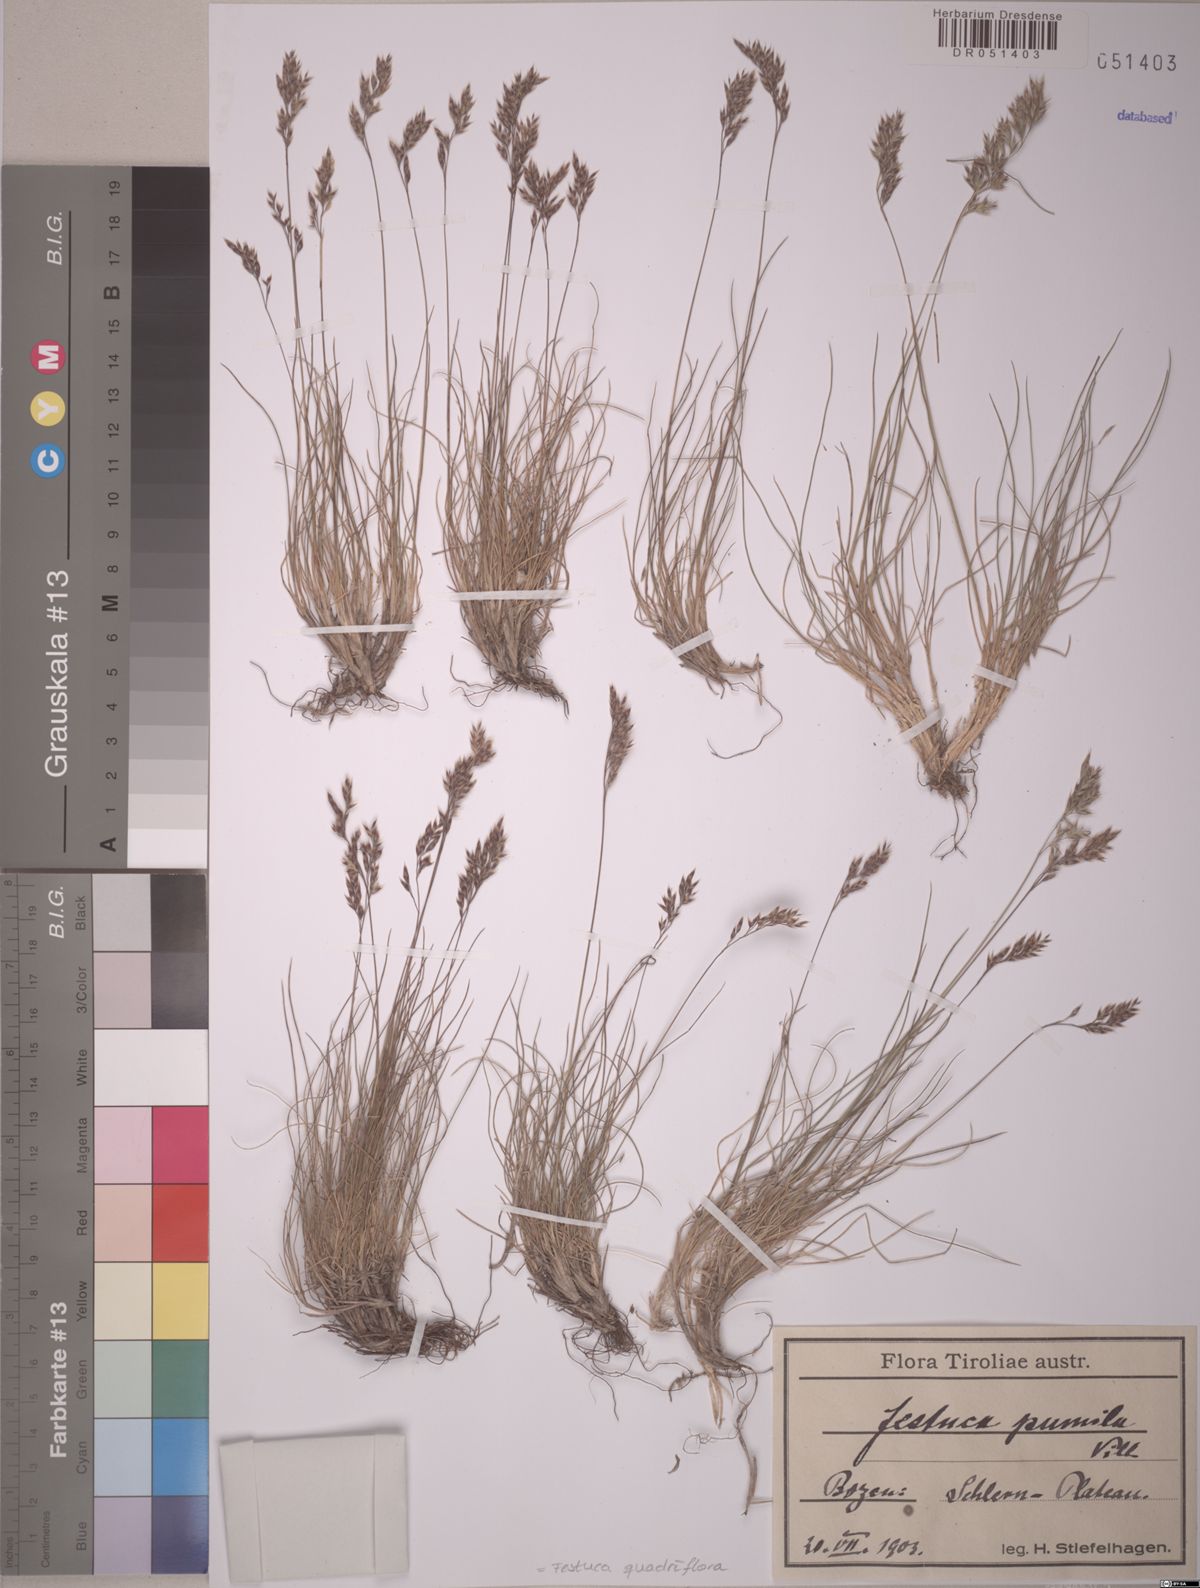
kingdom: Plantae
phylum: Tracheophyta
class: Liliopsida
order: Poales
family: Poaceae
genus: Festuca
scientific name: Festuca quadriflora
